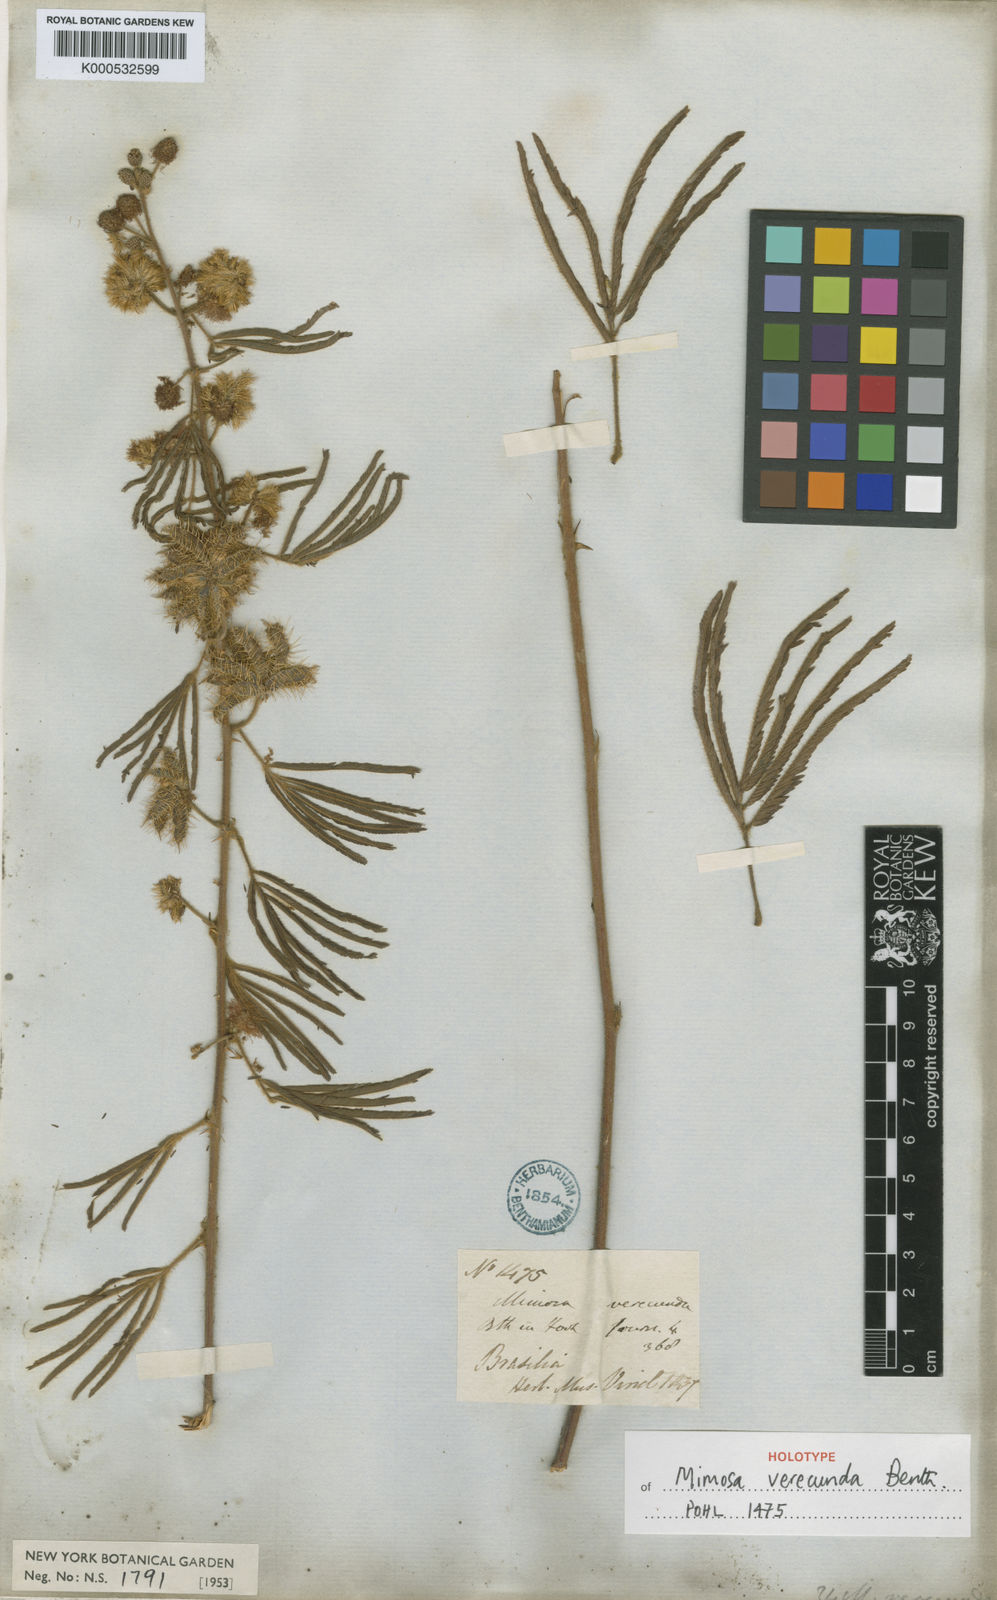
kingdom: Plantae
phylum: Tracheophyta
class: Magnoliopsida
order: Fabales
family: Fabaceae
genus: Mimosa
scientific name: Mimosa verecunda
